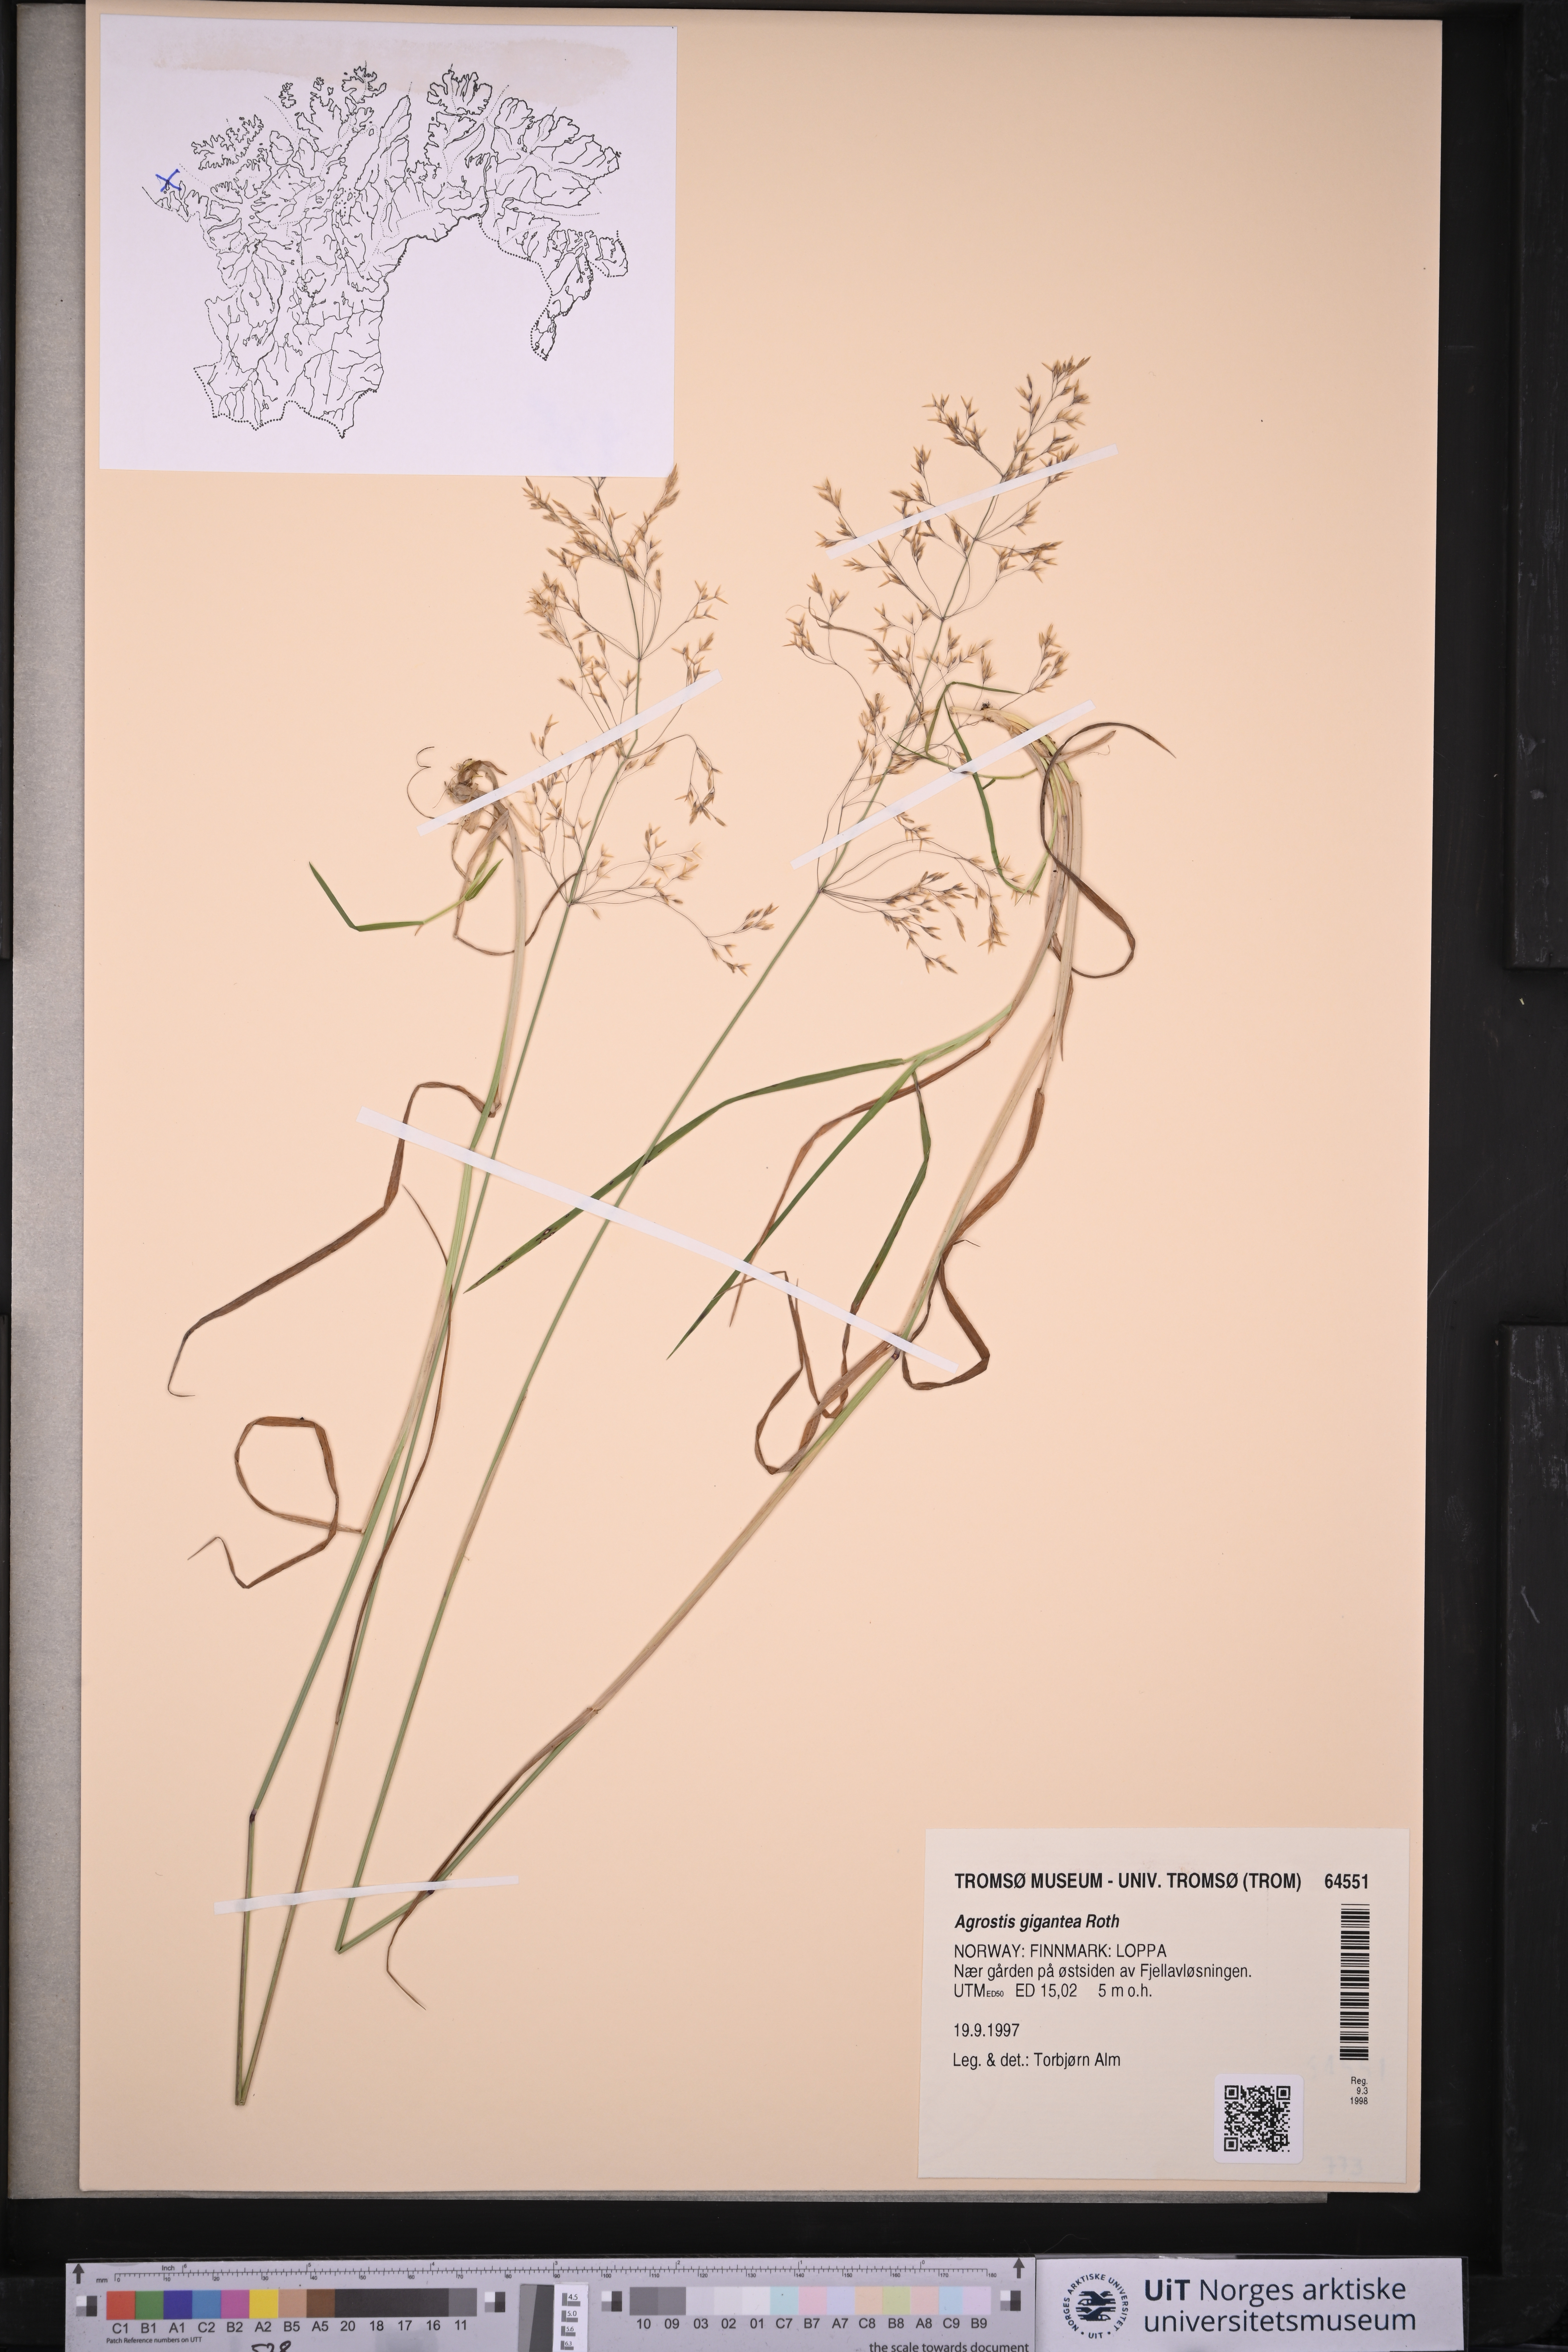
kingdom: Plantae
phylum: Tracheophyta
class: Liliopsida
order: Poales
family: Poaceae
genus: Agrostis
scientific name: Agrostis gigantea
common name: Black bent
